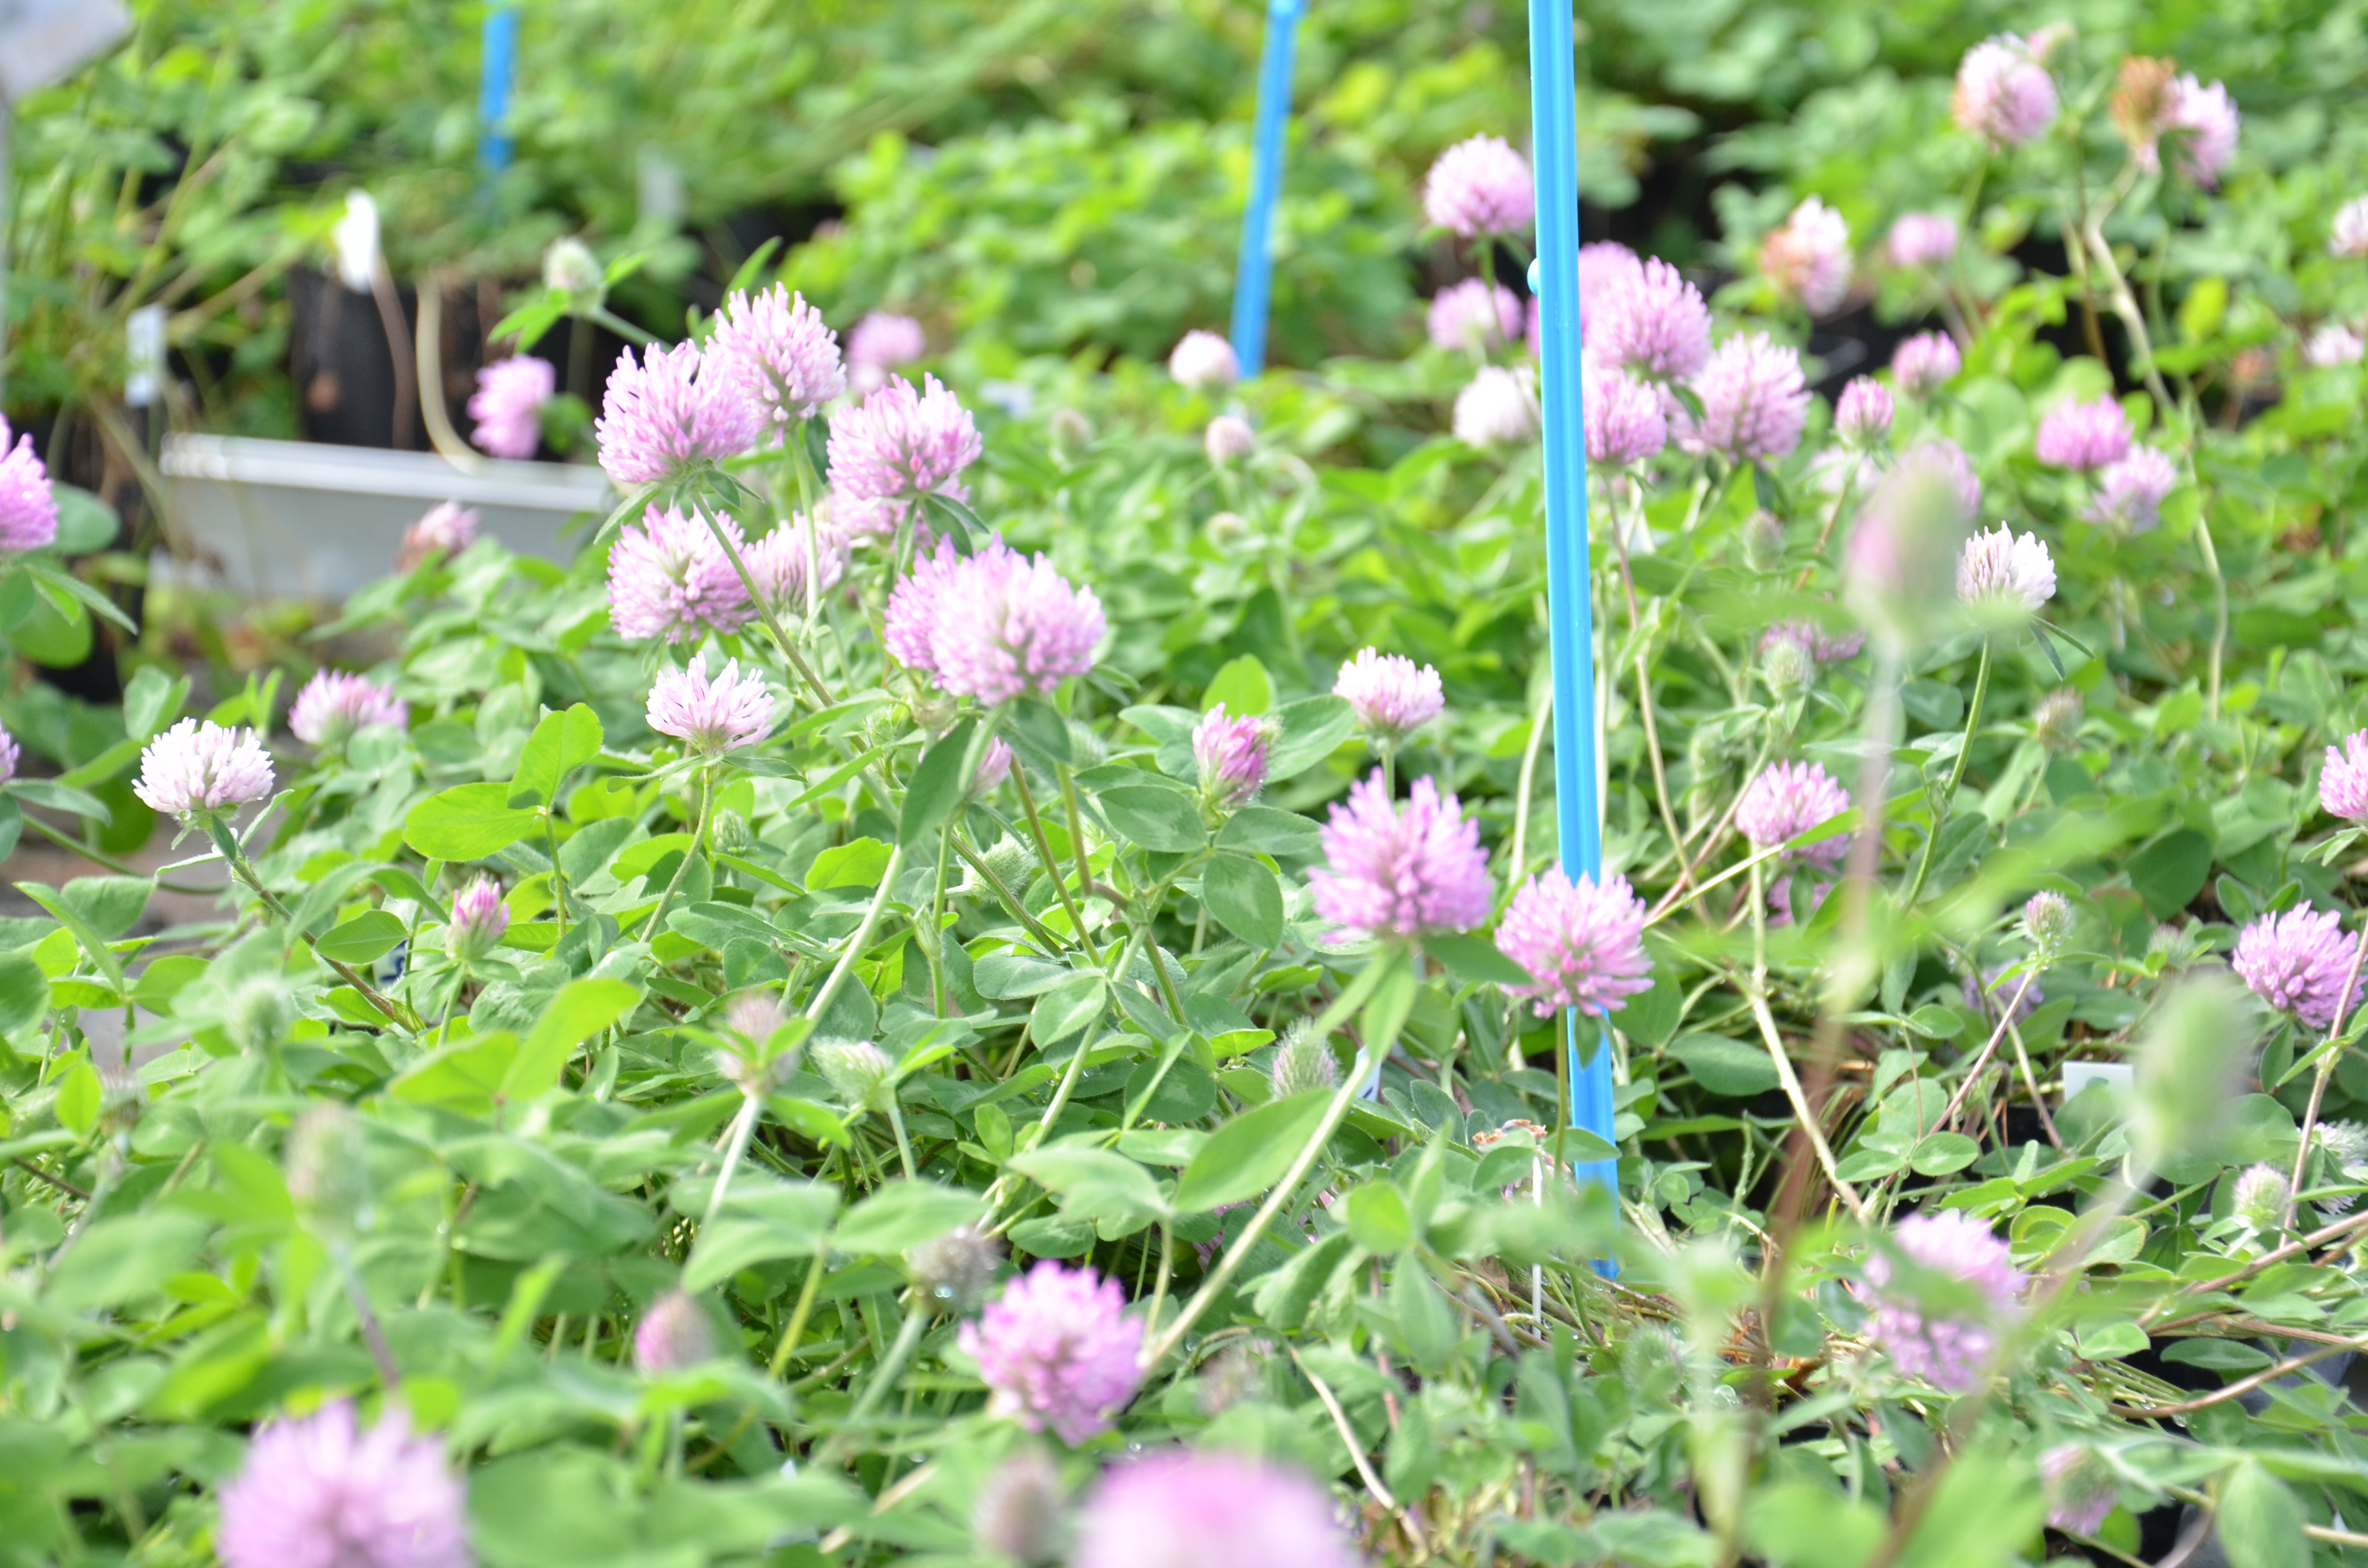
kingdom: Plantae
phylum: Tracheophyta
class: Magnoliopsida
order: Fabales
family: Fabaceae
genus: Trifolium
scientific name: Trifolium pratense
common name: Red clover
